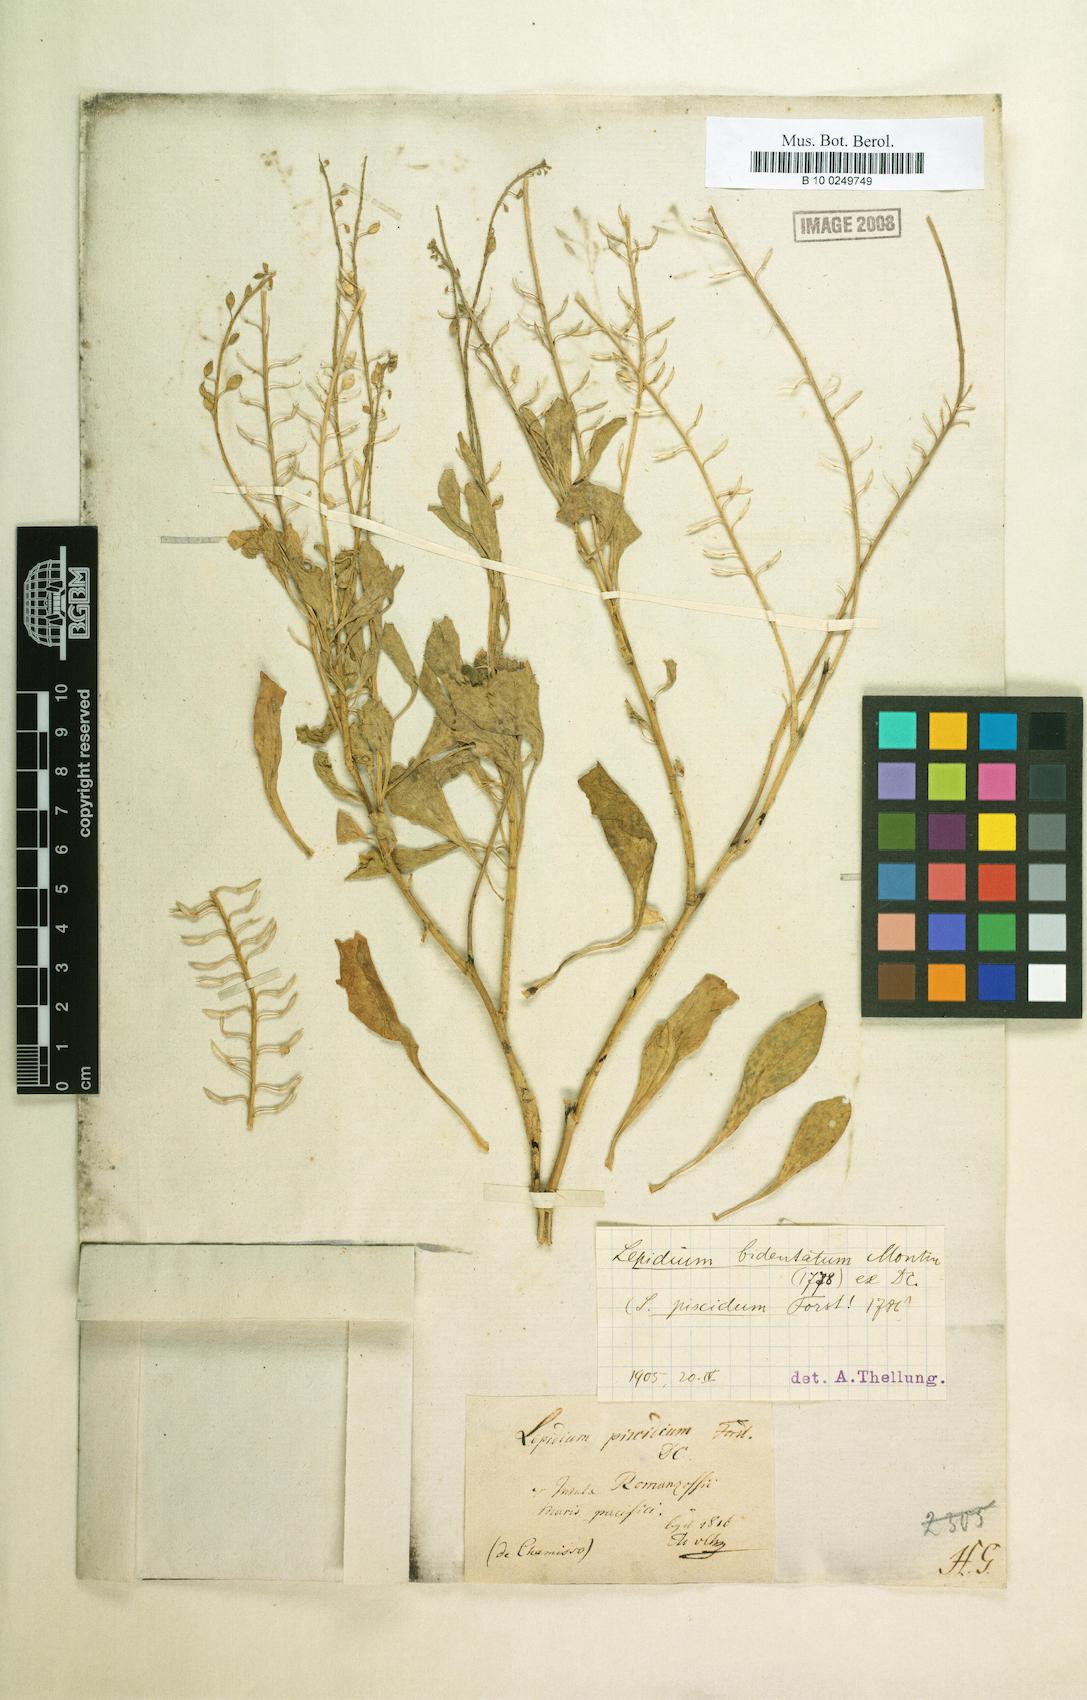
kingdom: Plantae
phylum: Tracheophyta
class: Magnoliopsida
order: Brassicales
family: Brassicaceae
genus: Lepidium
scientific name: Lepidium bidentatum
